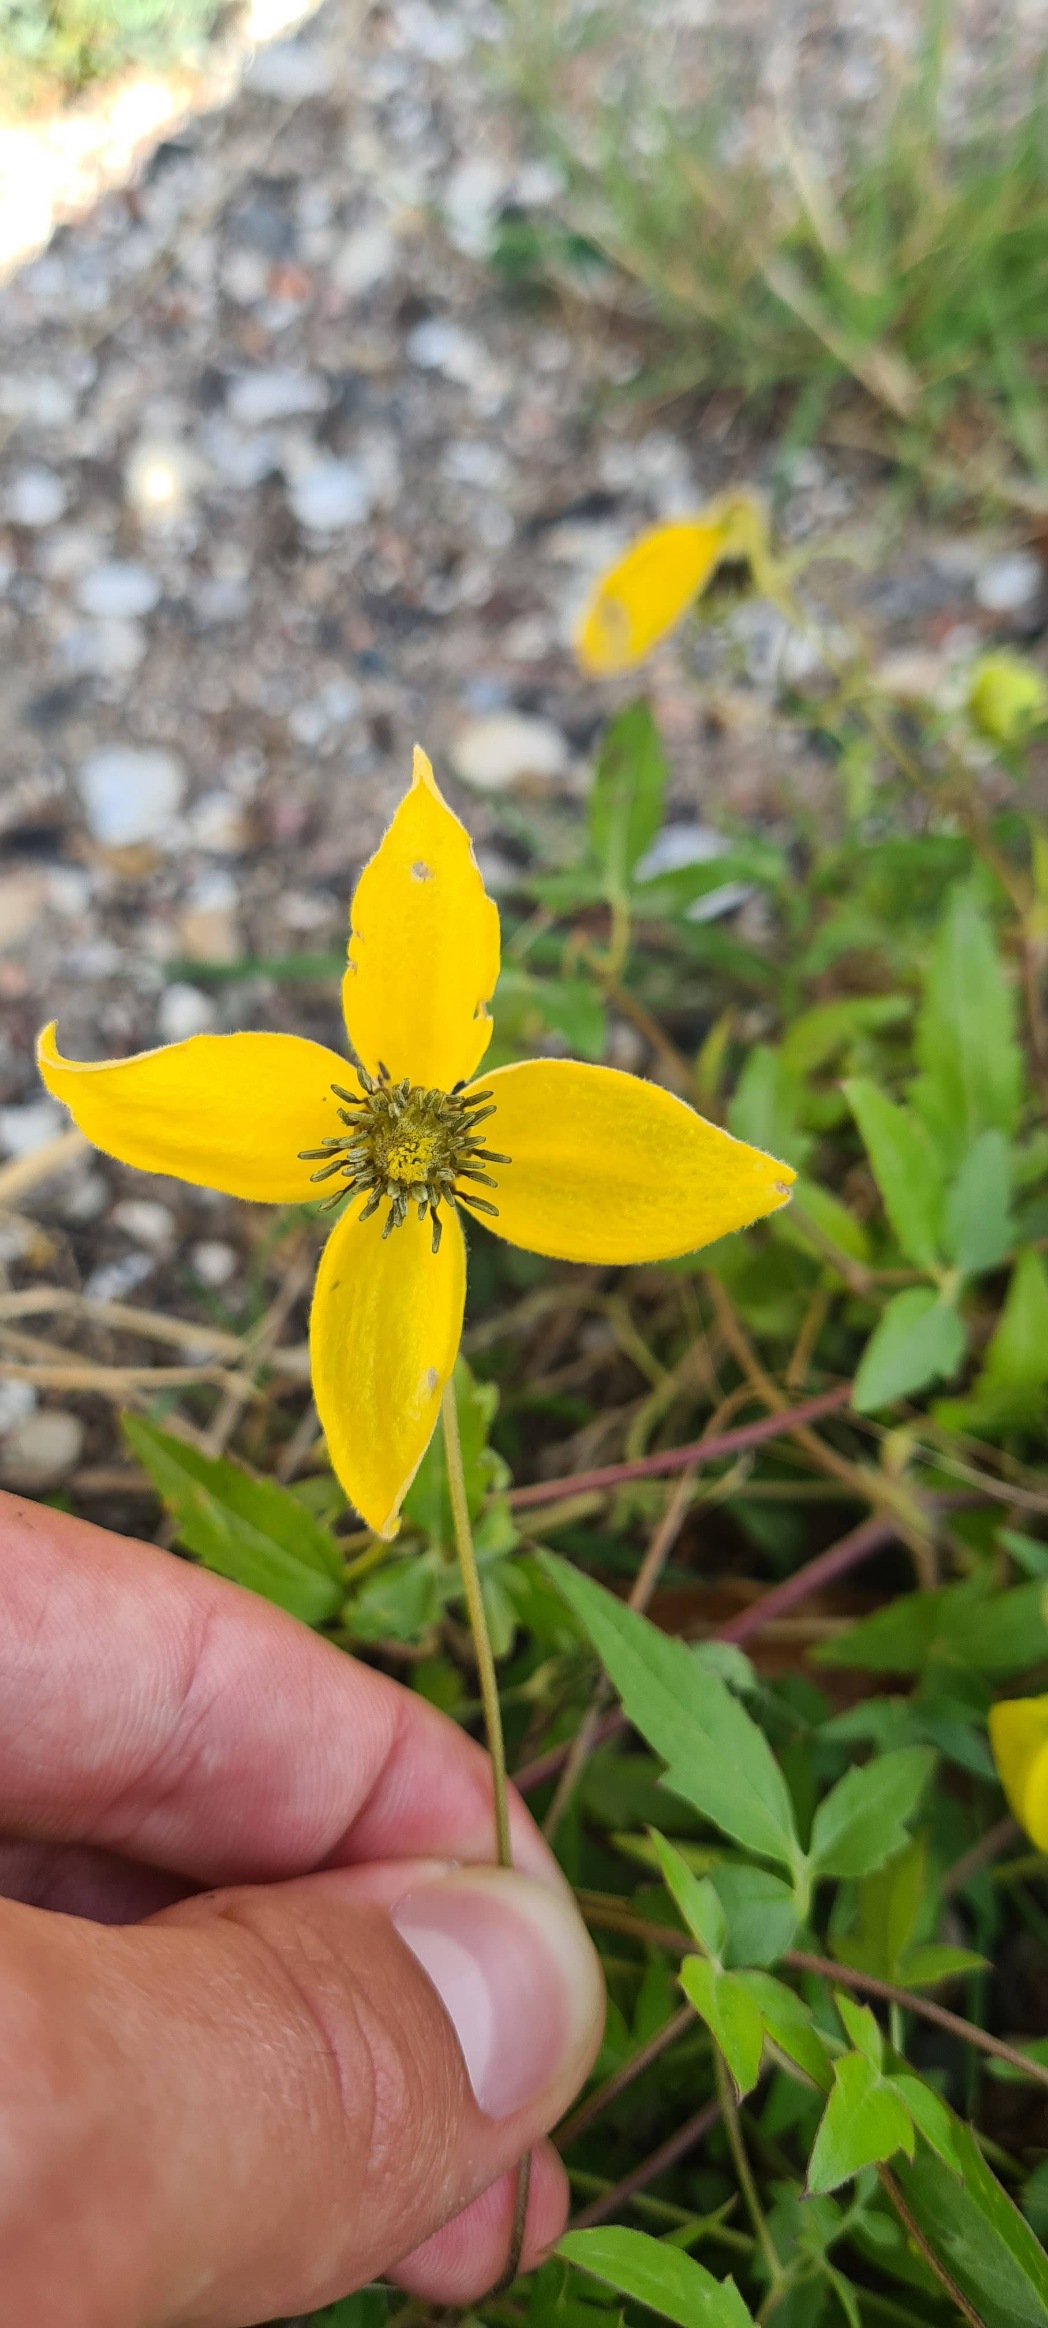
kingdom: Plantae
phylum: Tracheophyta
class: Magnoliopsida
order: Ranunculales
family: Ranunculaceae
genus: Clematis
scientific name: Clematis tangutica
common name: Gul skovranke
